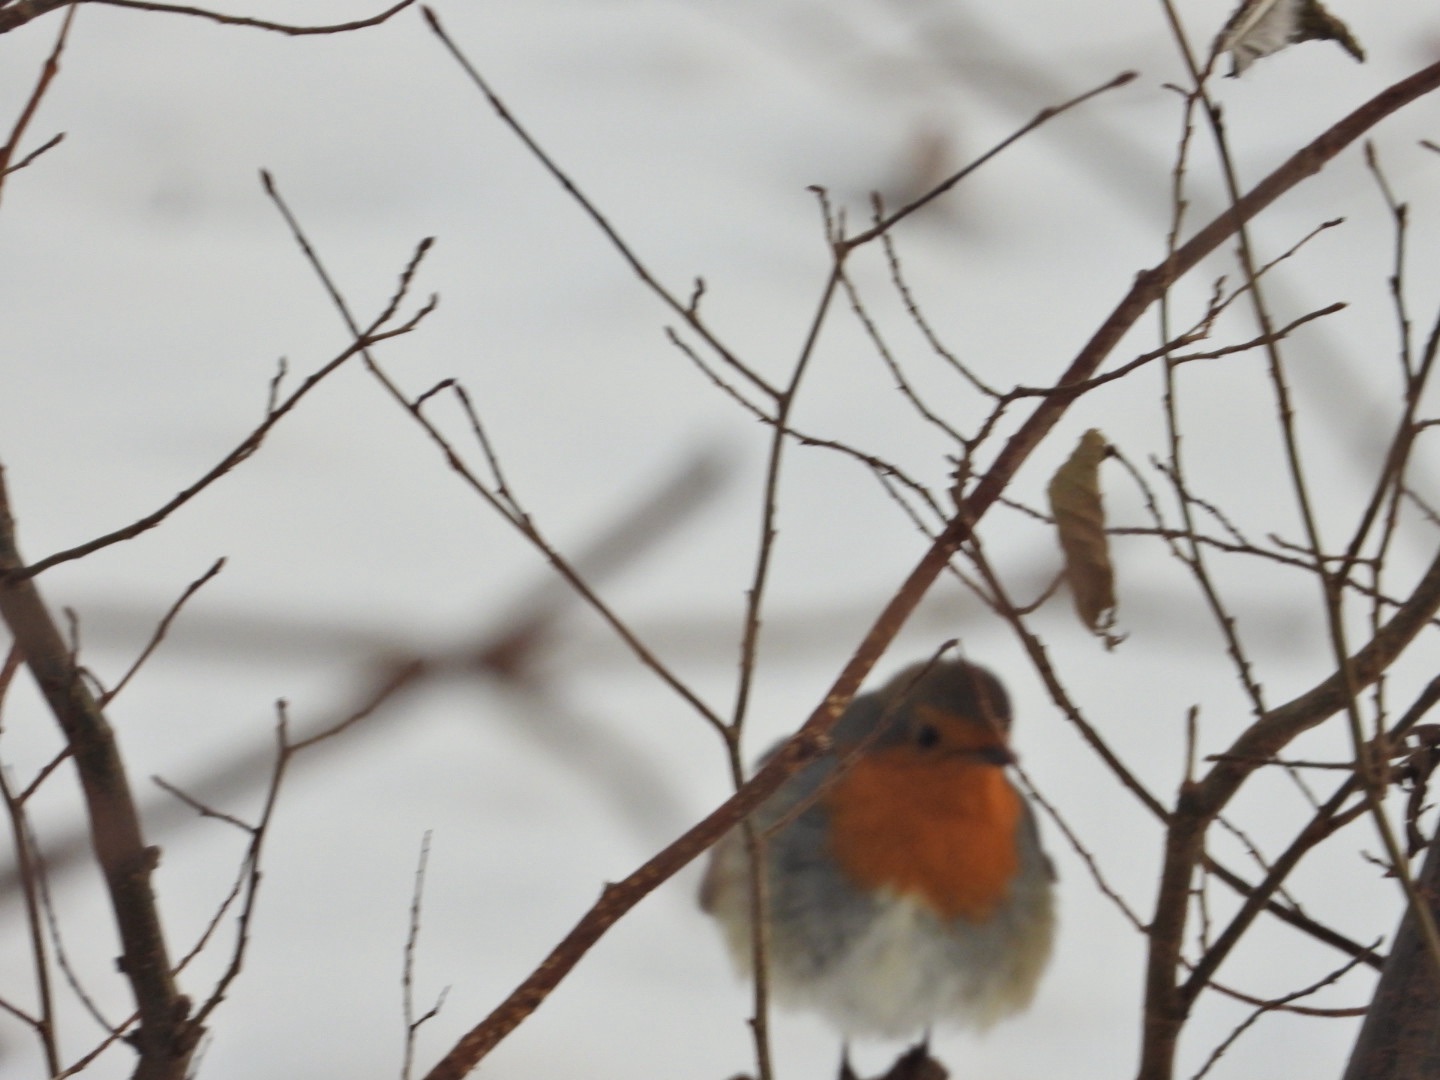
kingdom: Animalia
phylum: Chordata
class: Aves
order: Passeriformes
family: Muscicapidae
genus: Erithacus
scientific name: Erithacus rubecula
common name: Rødhals/rødkælk
